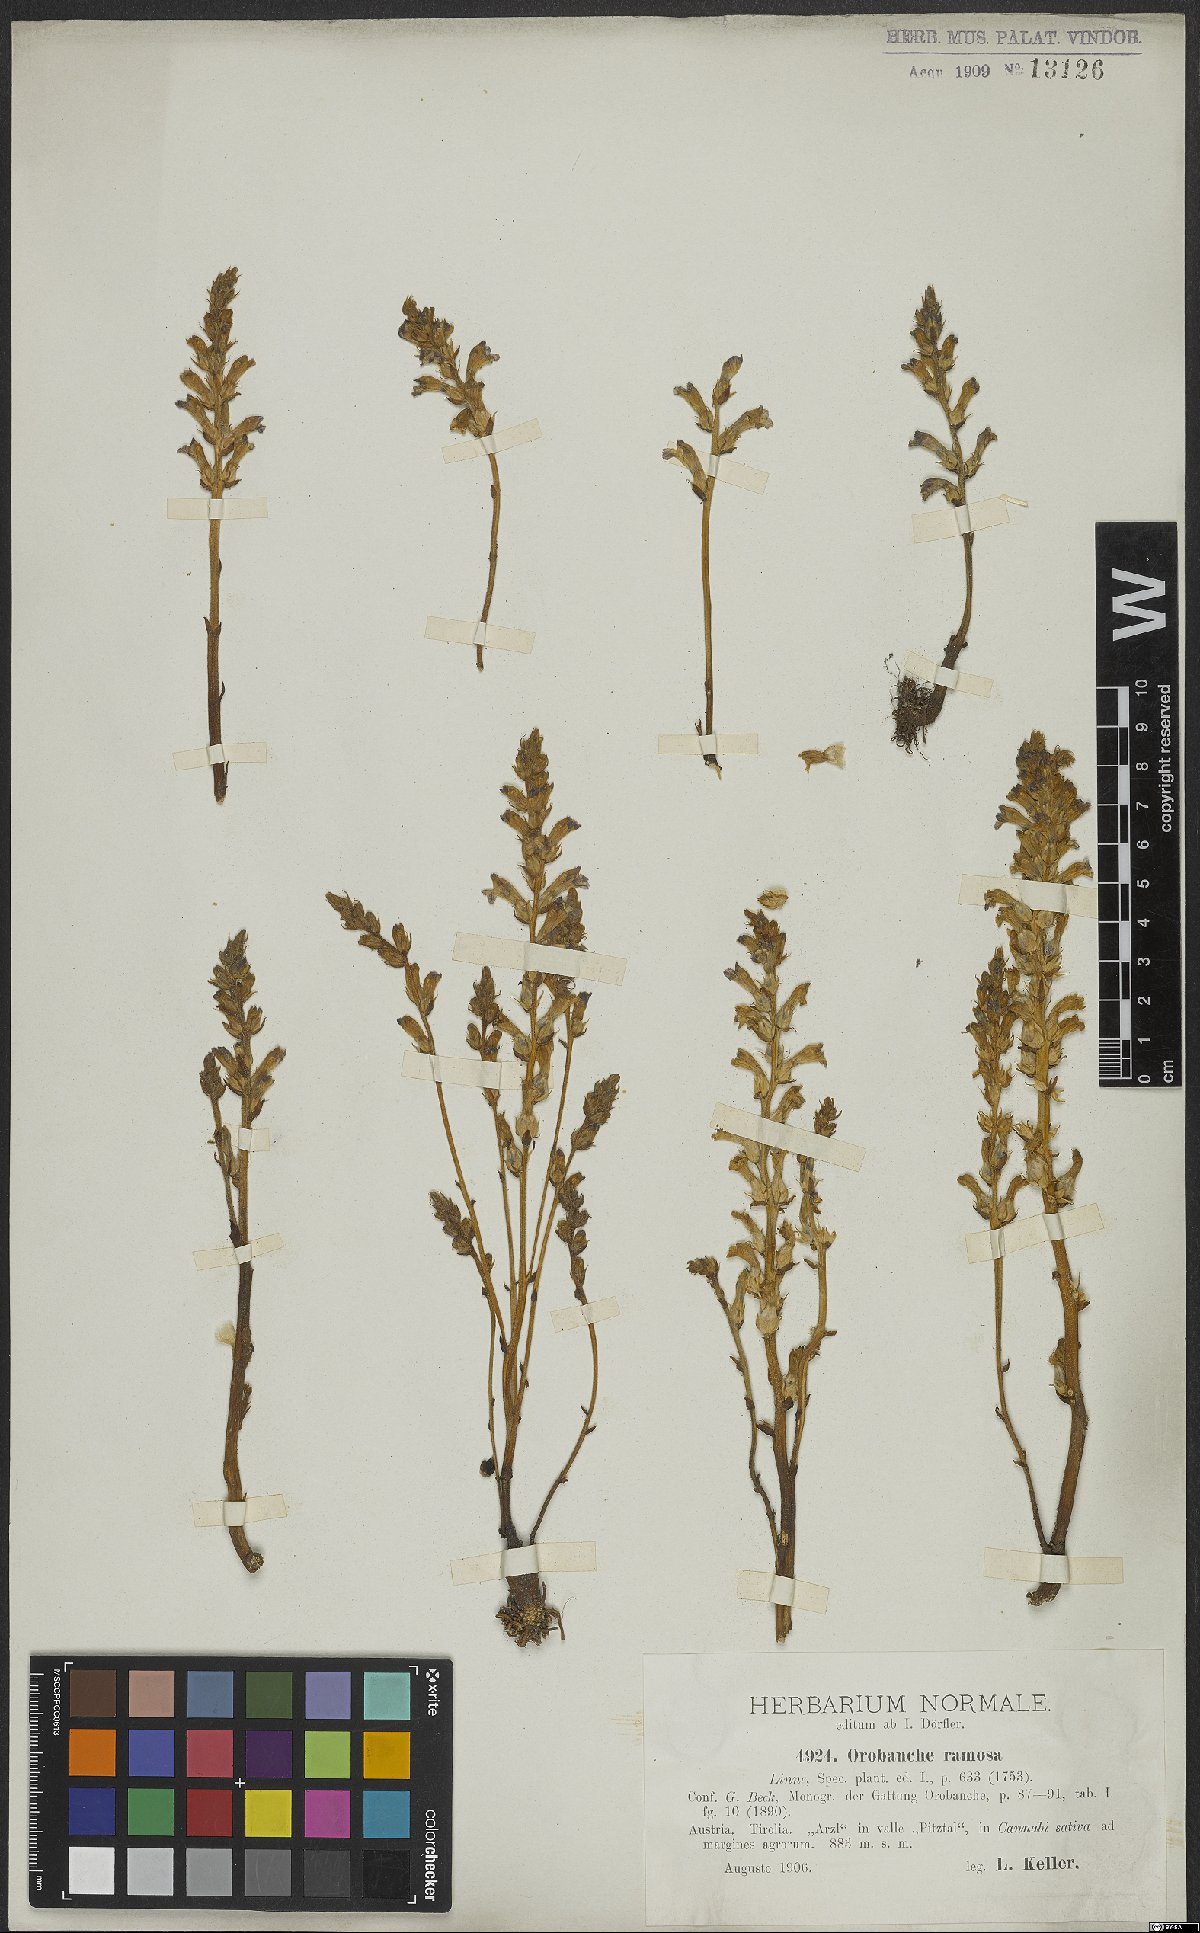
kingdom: Plantae
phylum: Tracheophyta
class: Magnoliopsida
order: Lamiales
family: Orobanchaceae
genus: Phelipanche
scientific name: Phelipanche ramosa
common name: Branched broomrape
